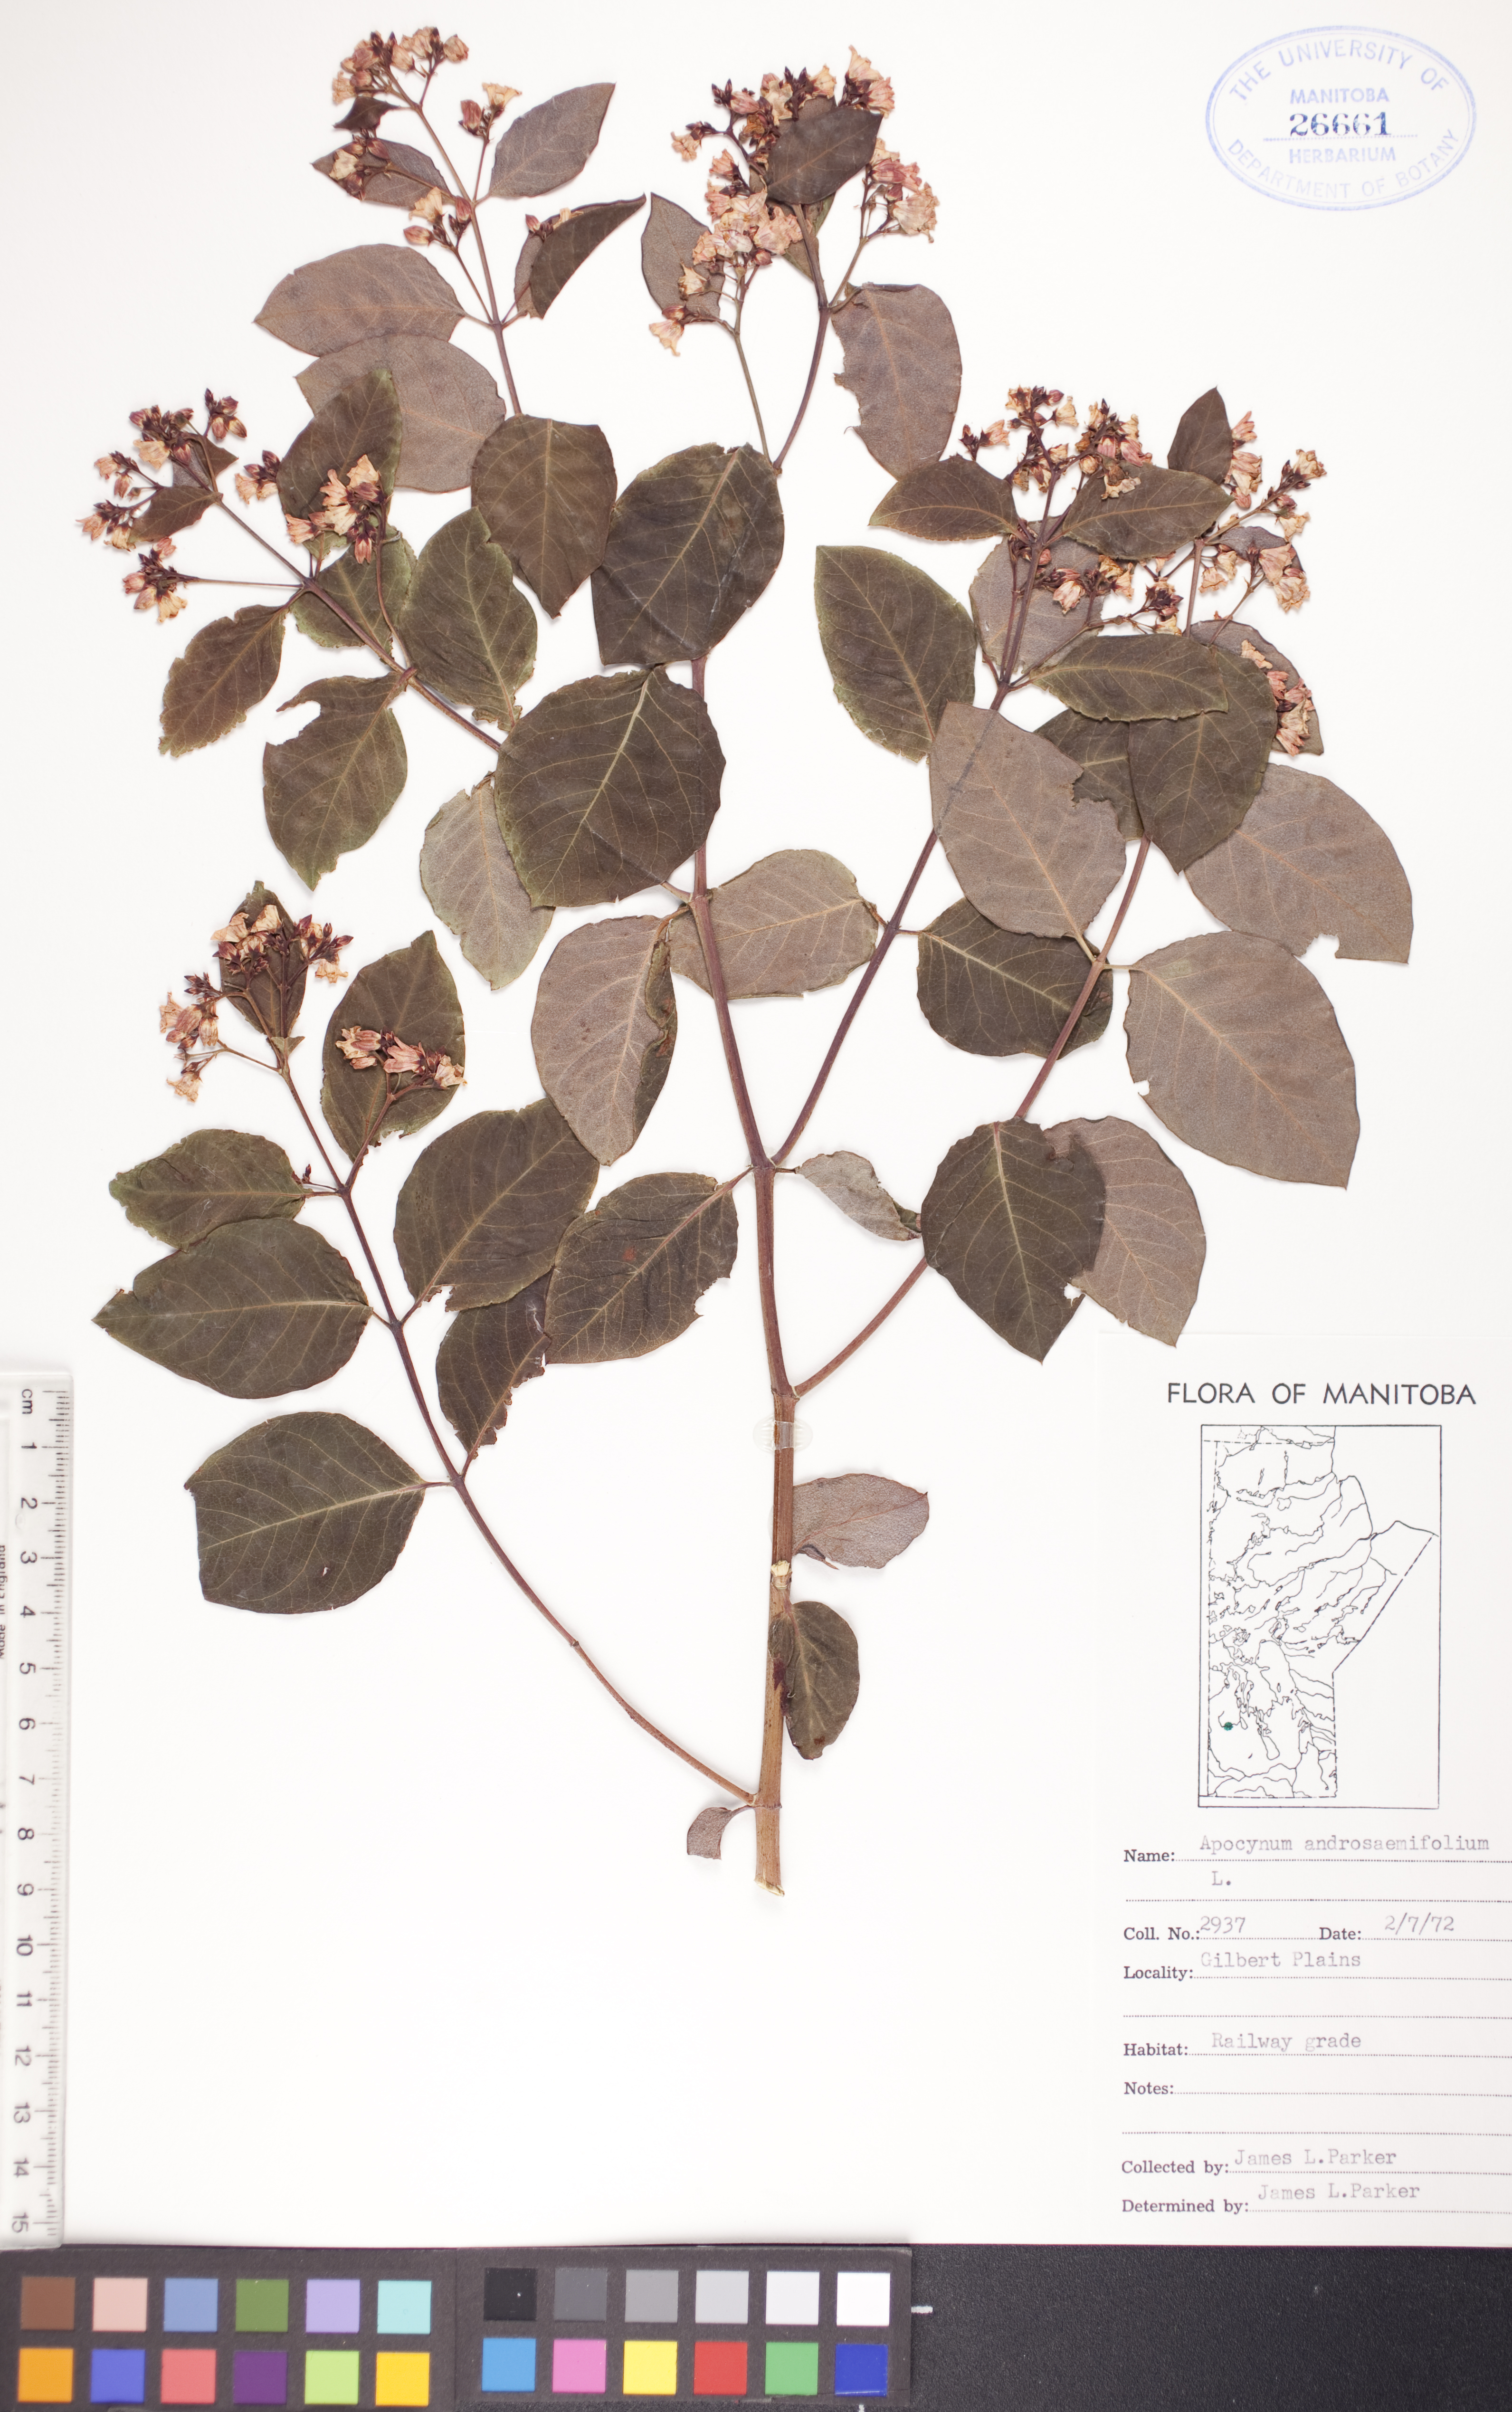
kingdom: Plantae
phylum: Tracheophyta
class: Magnoliopsida
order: Gentianales
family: Apocynaceae
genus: Apocynum
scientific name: Apocynum androsaemifolium
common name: Spreading dogbane
